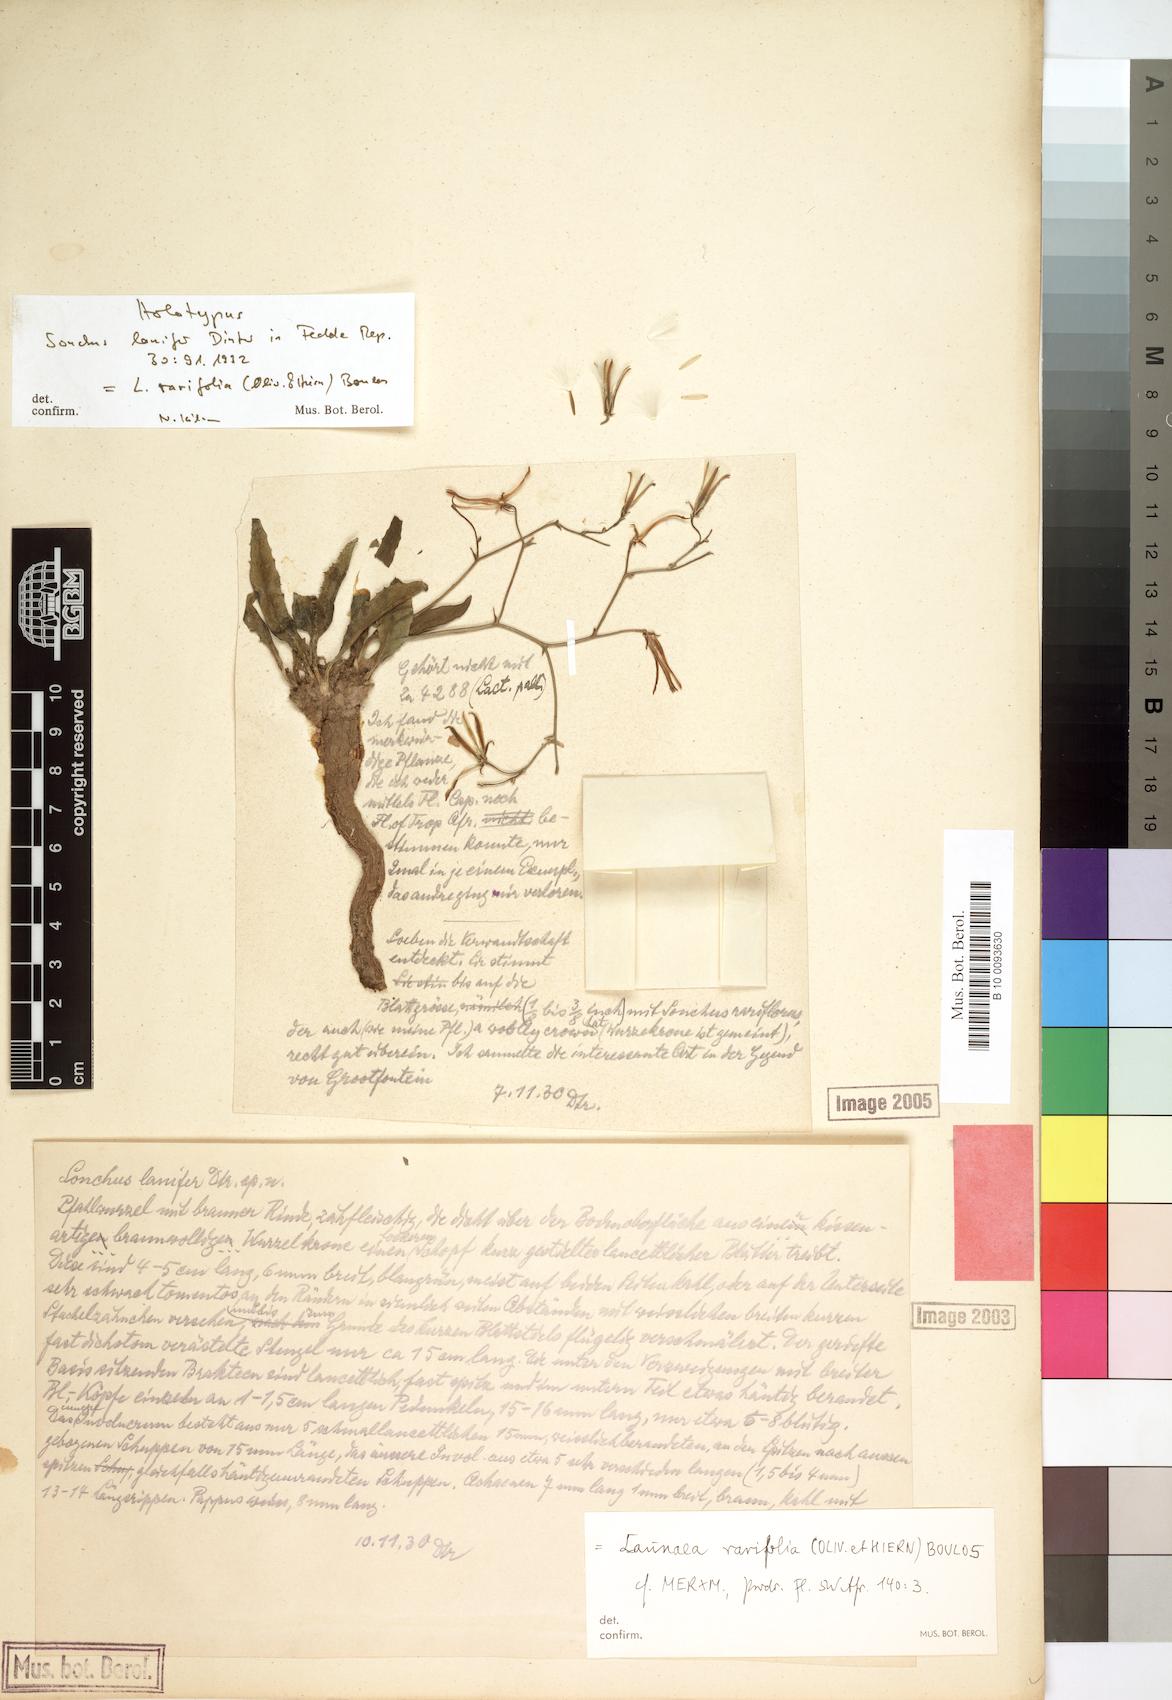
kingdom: Plantae
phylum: Tracheophyta
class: Magnoliopsida
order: Asterales
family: Asteraceae
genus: Launaea
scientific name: Launaea rarifolia
